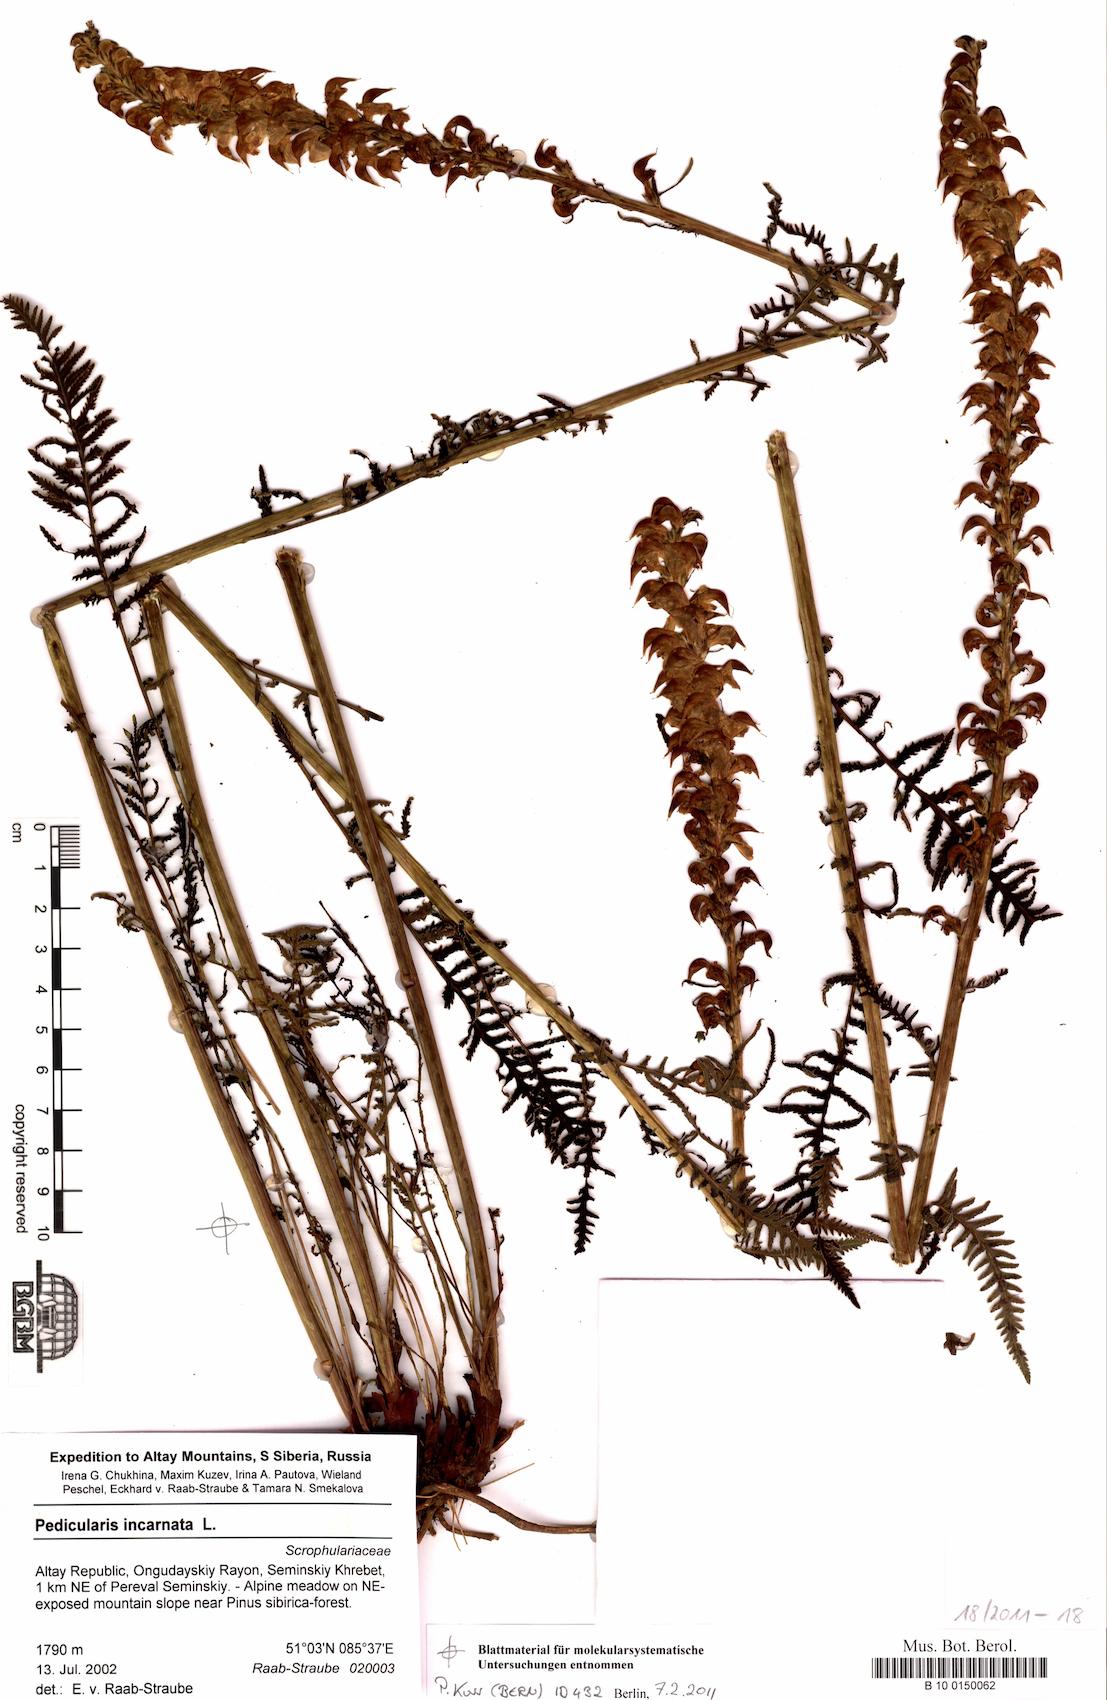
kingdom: Plantae
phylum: Tracheophyta
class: Magnoliopsida
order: Lamiales
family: Orobanchaceae
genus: Pedicularis
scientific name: Pedicularis incarnata
